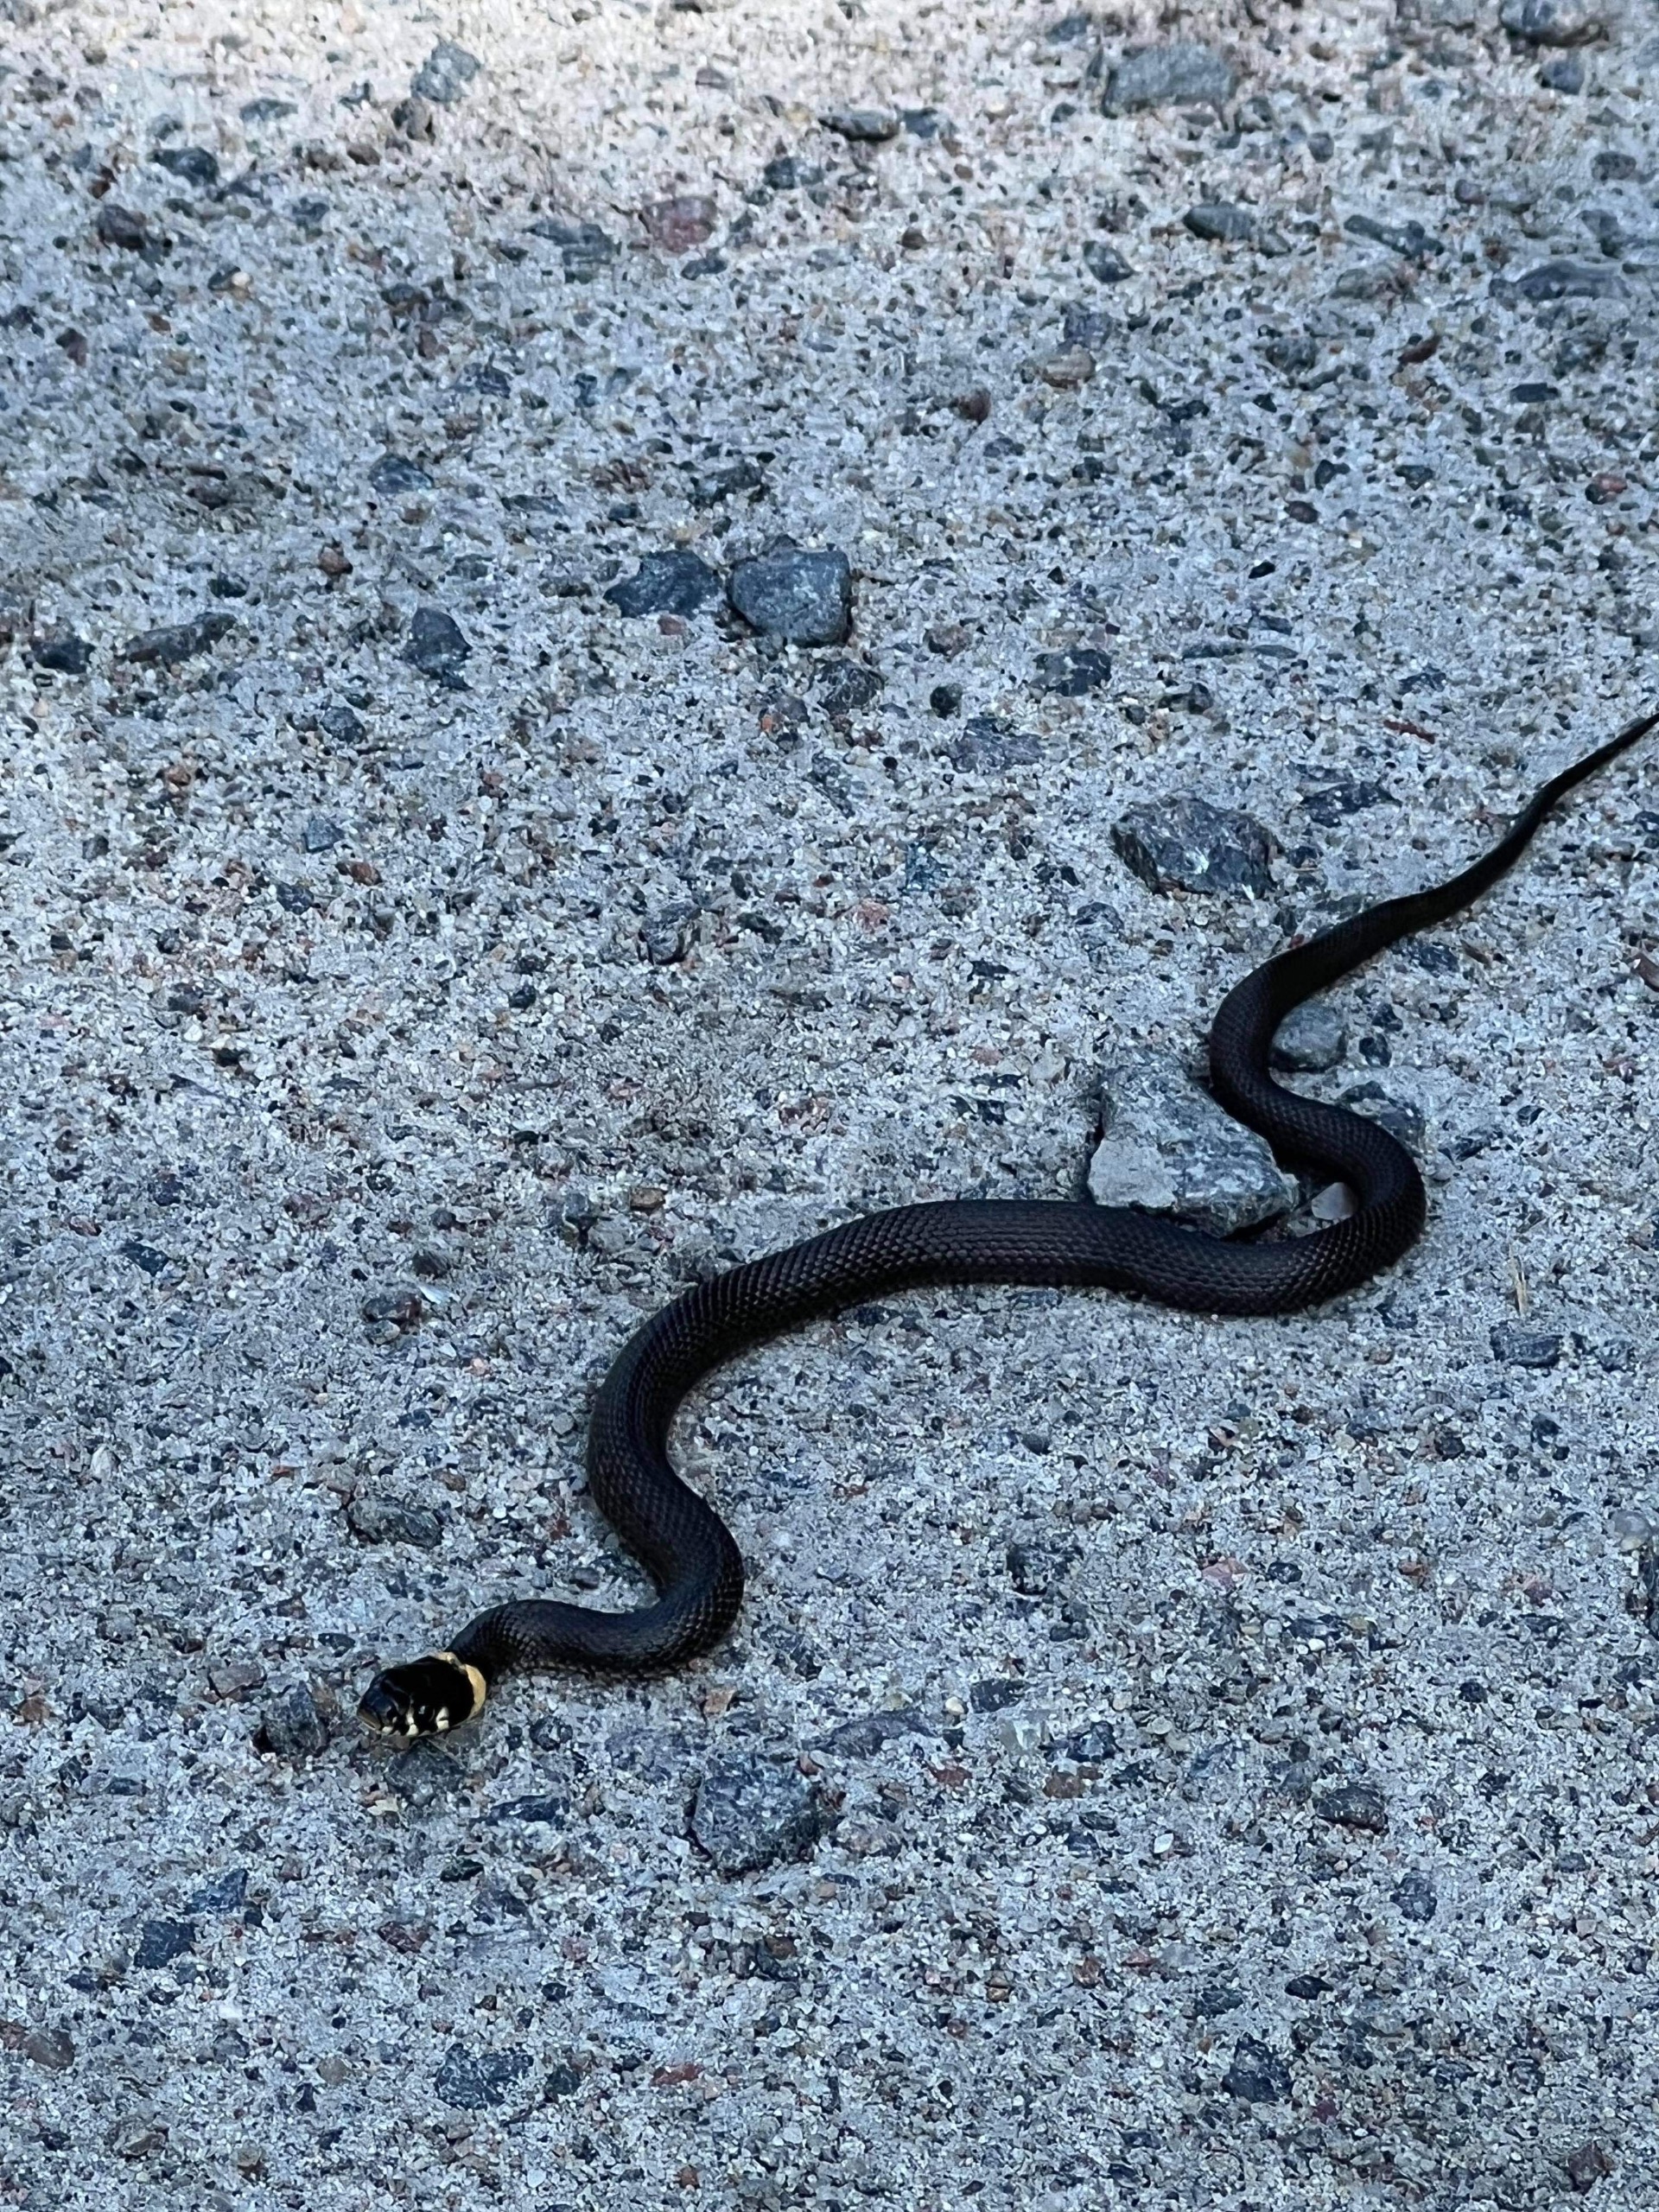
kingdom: Animalia
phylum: Chordata
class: Squamata
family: Colubridae
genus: Natrix
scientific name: Natrix natrix
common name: Snog
